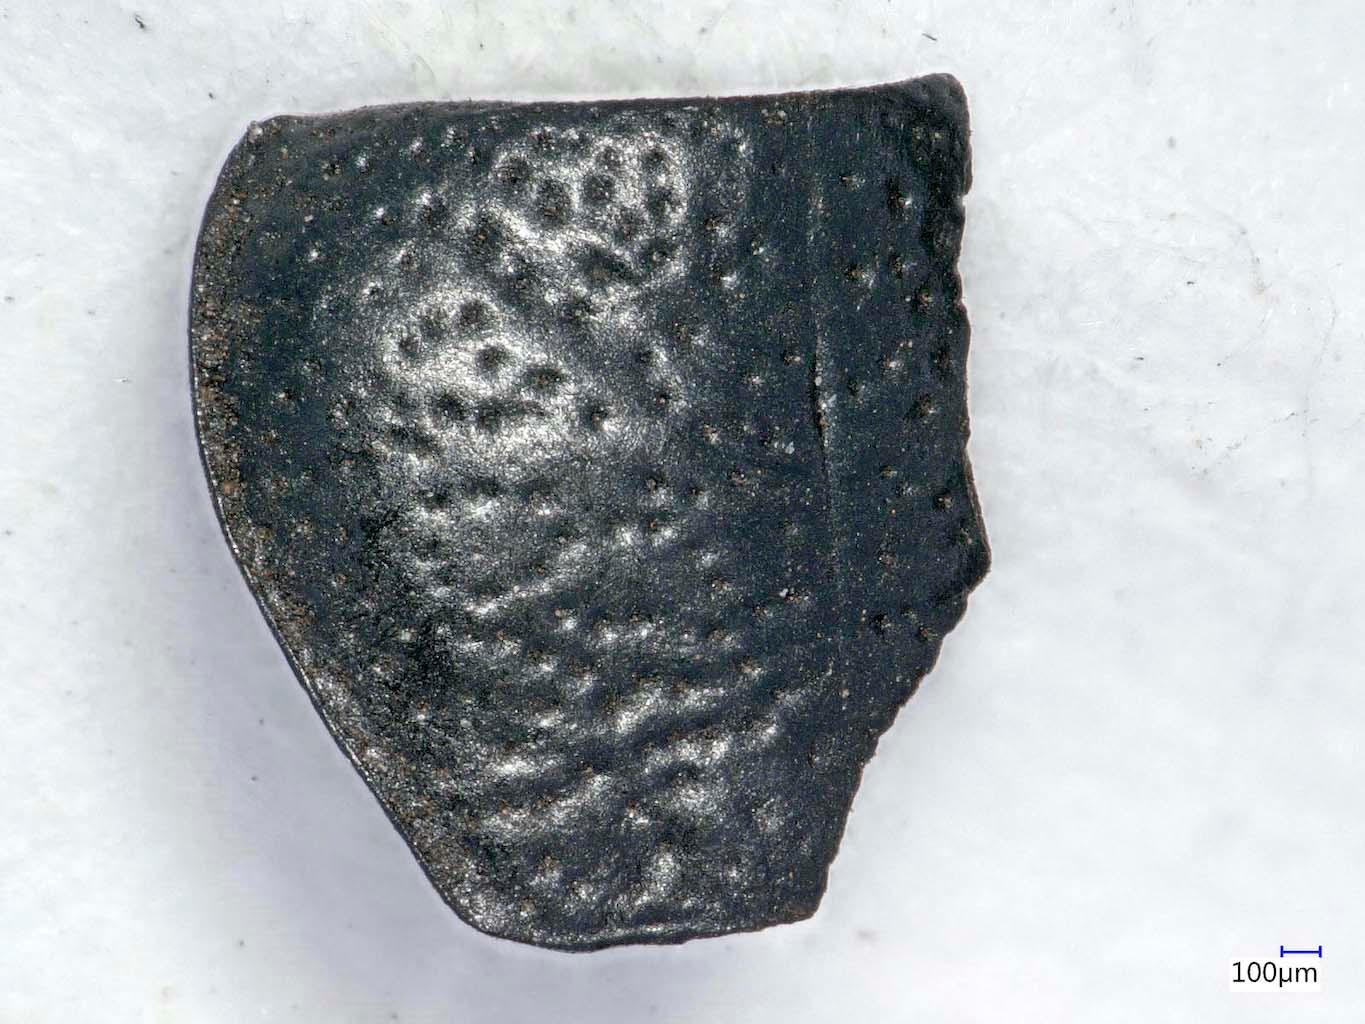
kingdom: Animalia
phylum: Arthropoda
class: Insecta
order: Coleoptera
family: Carabidae
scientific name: Carabidae
